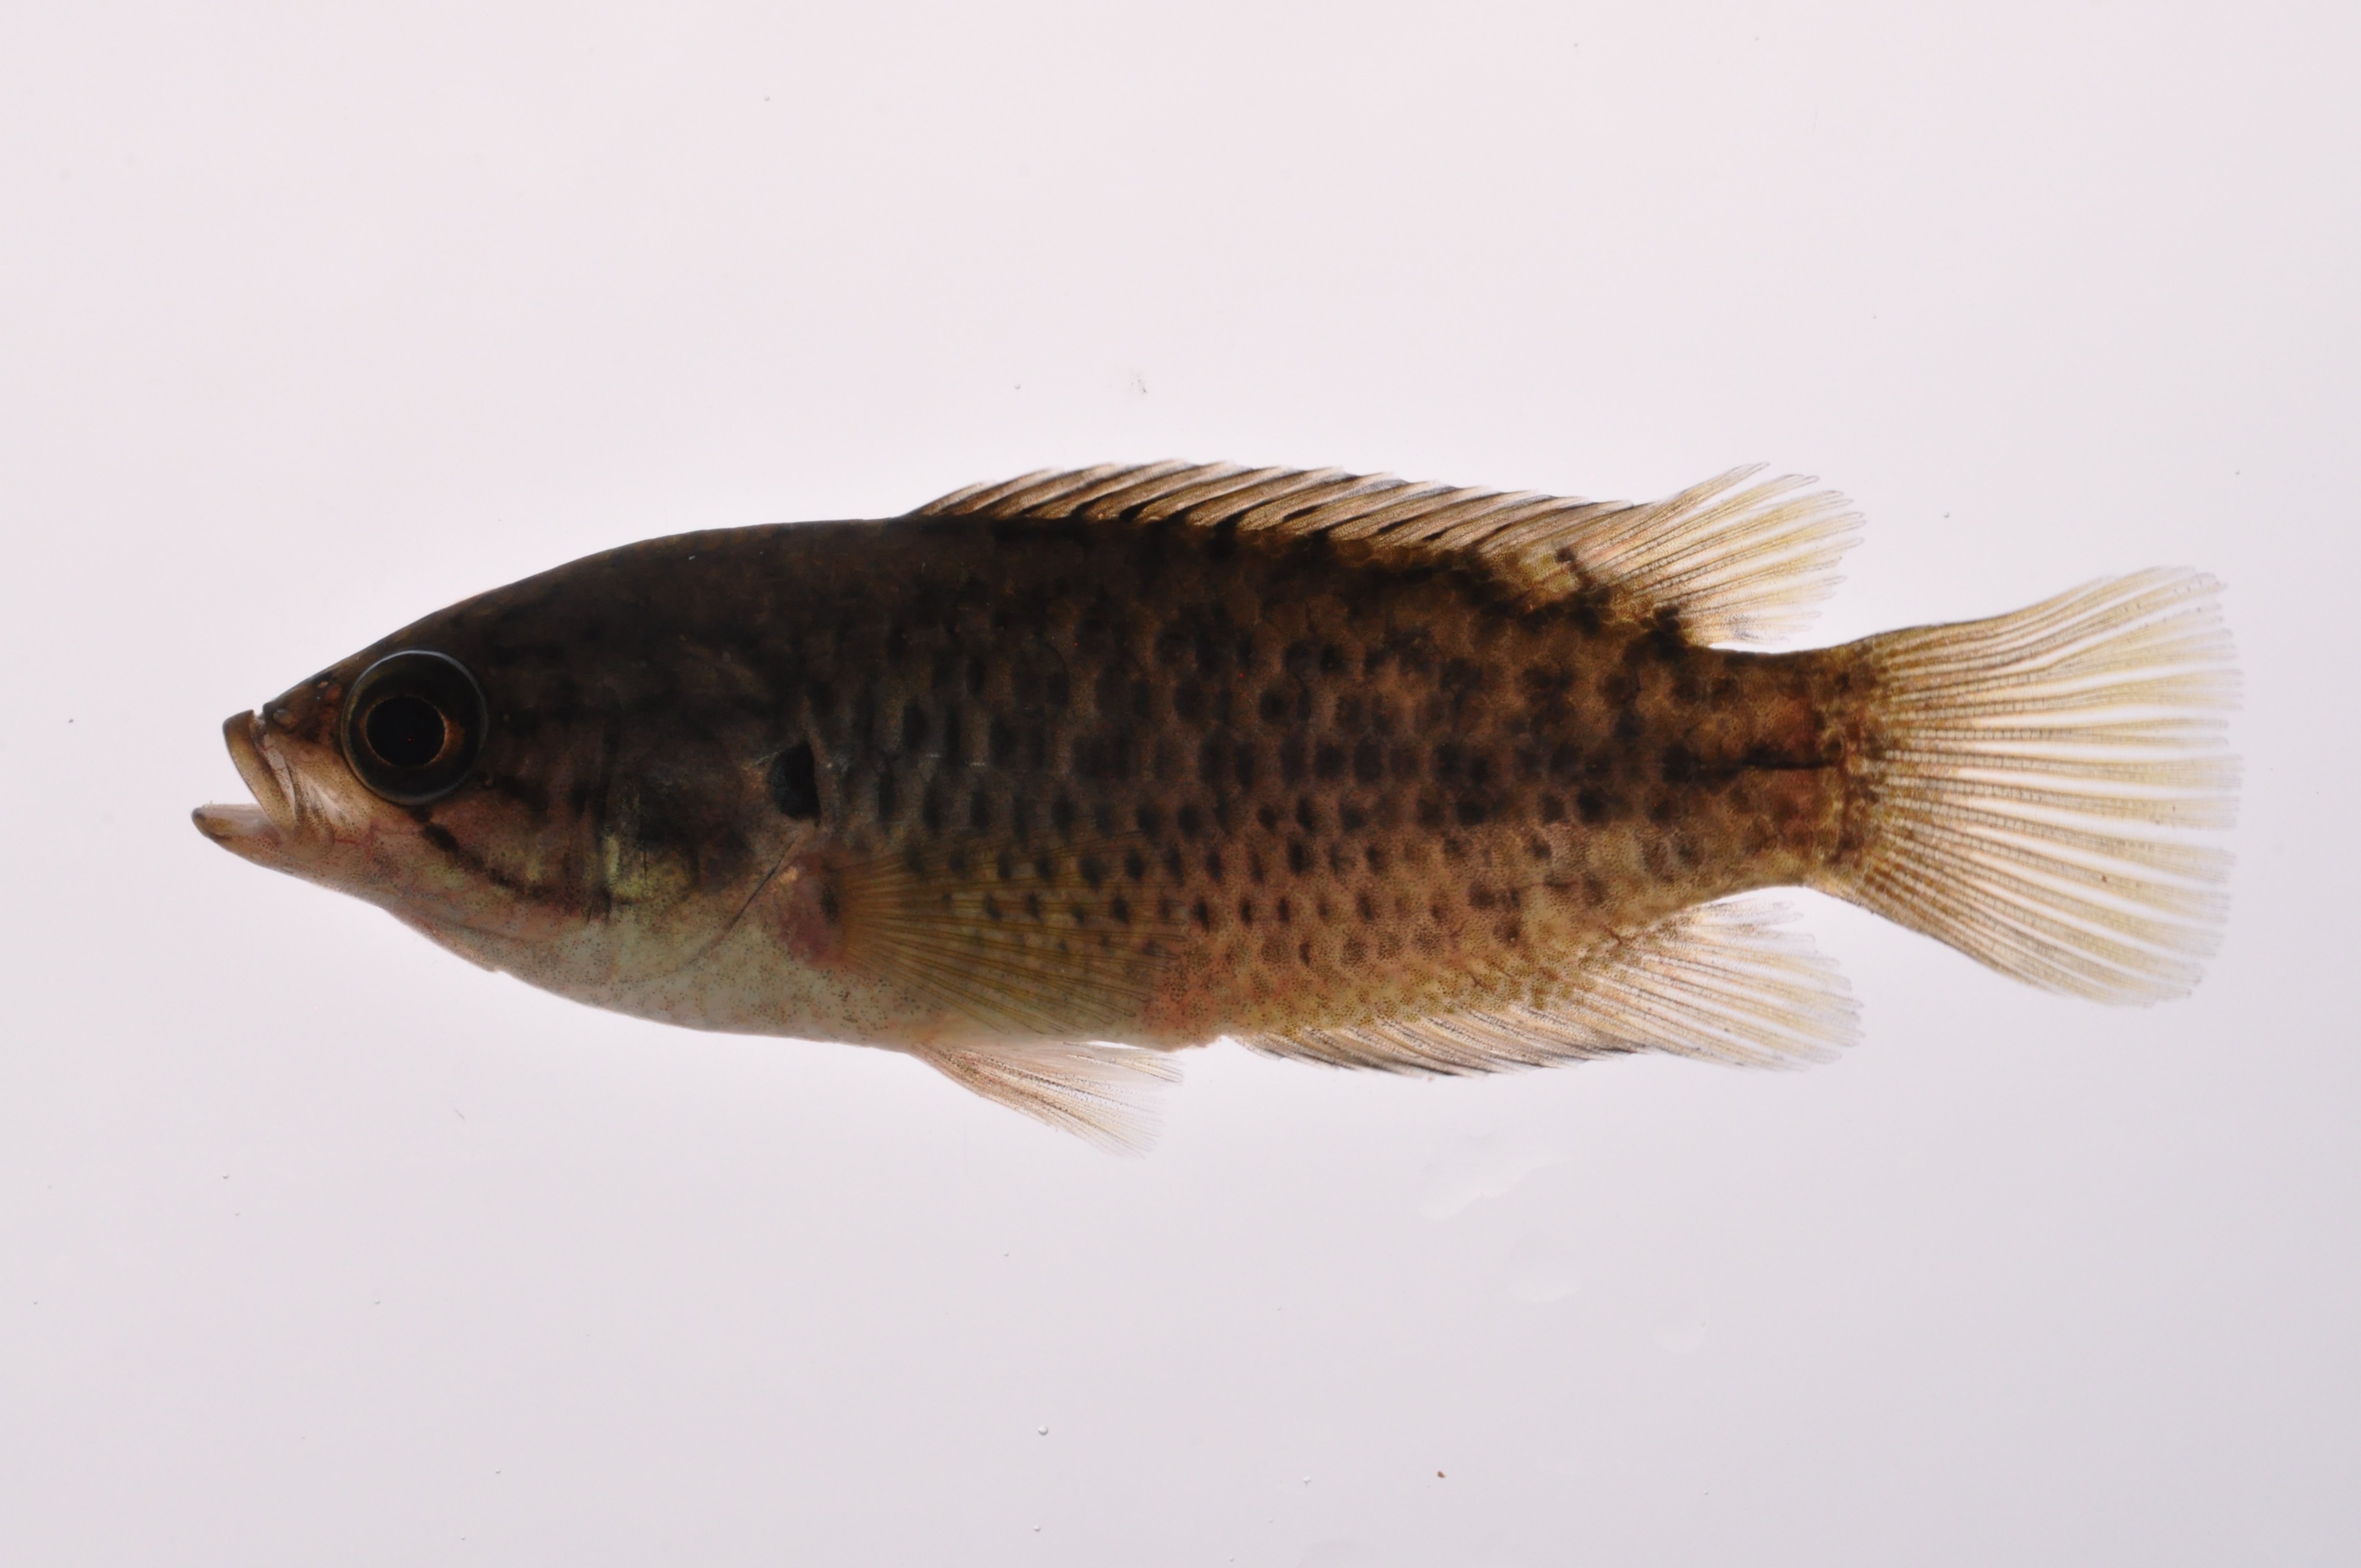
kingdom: Animalia
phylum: Chordata
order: Perciformes
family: Anabantidae
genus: Sandelia
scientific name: Sandelia capensis
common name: Cape kurper
